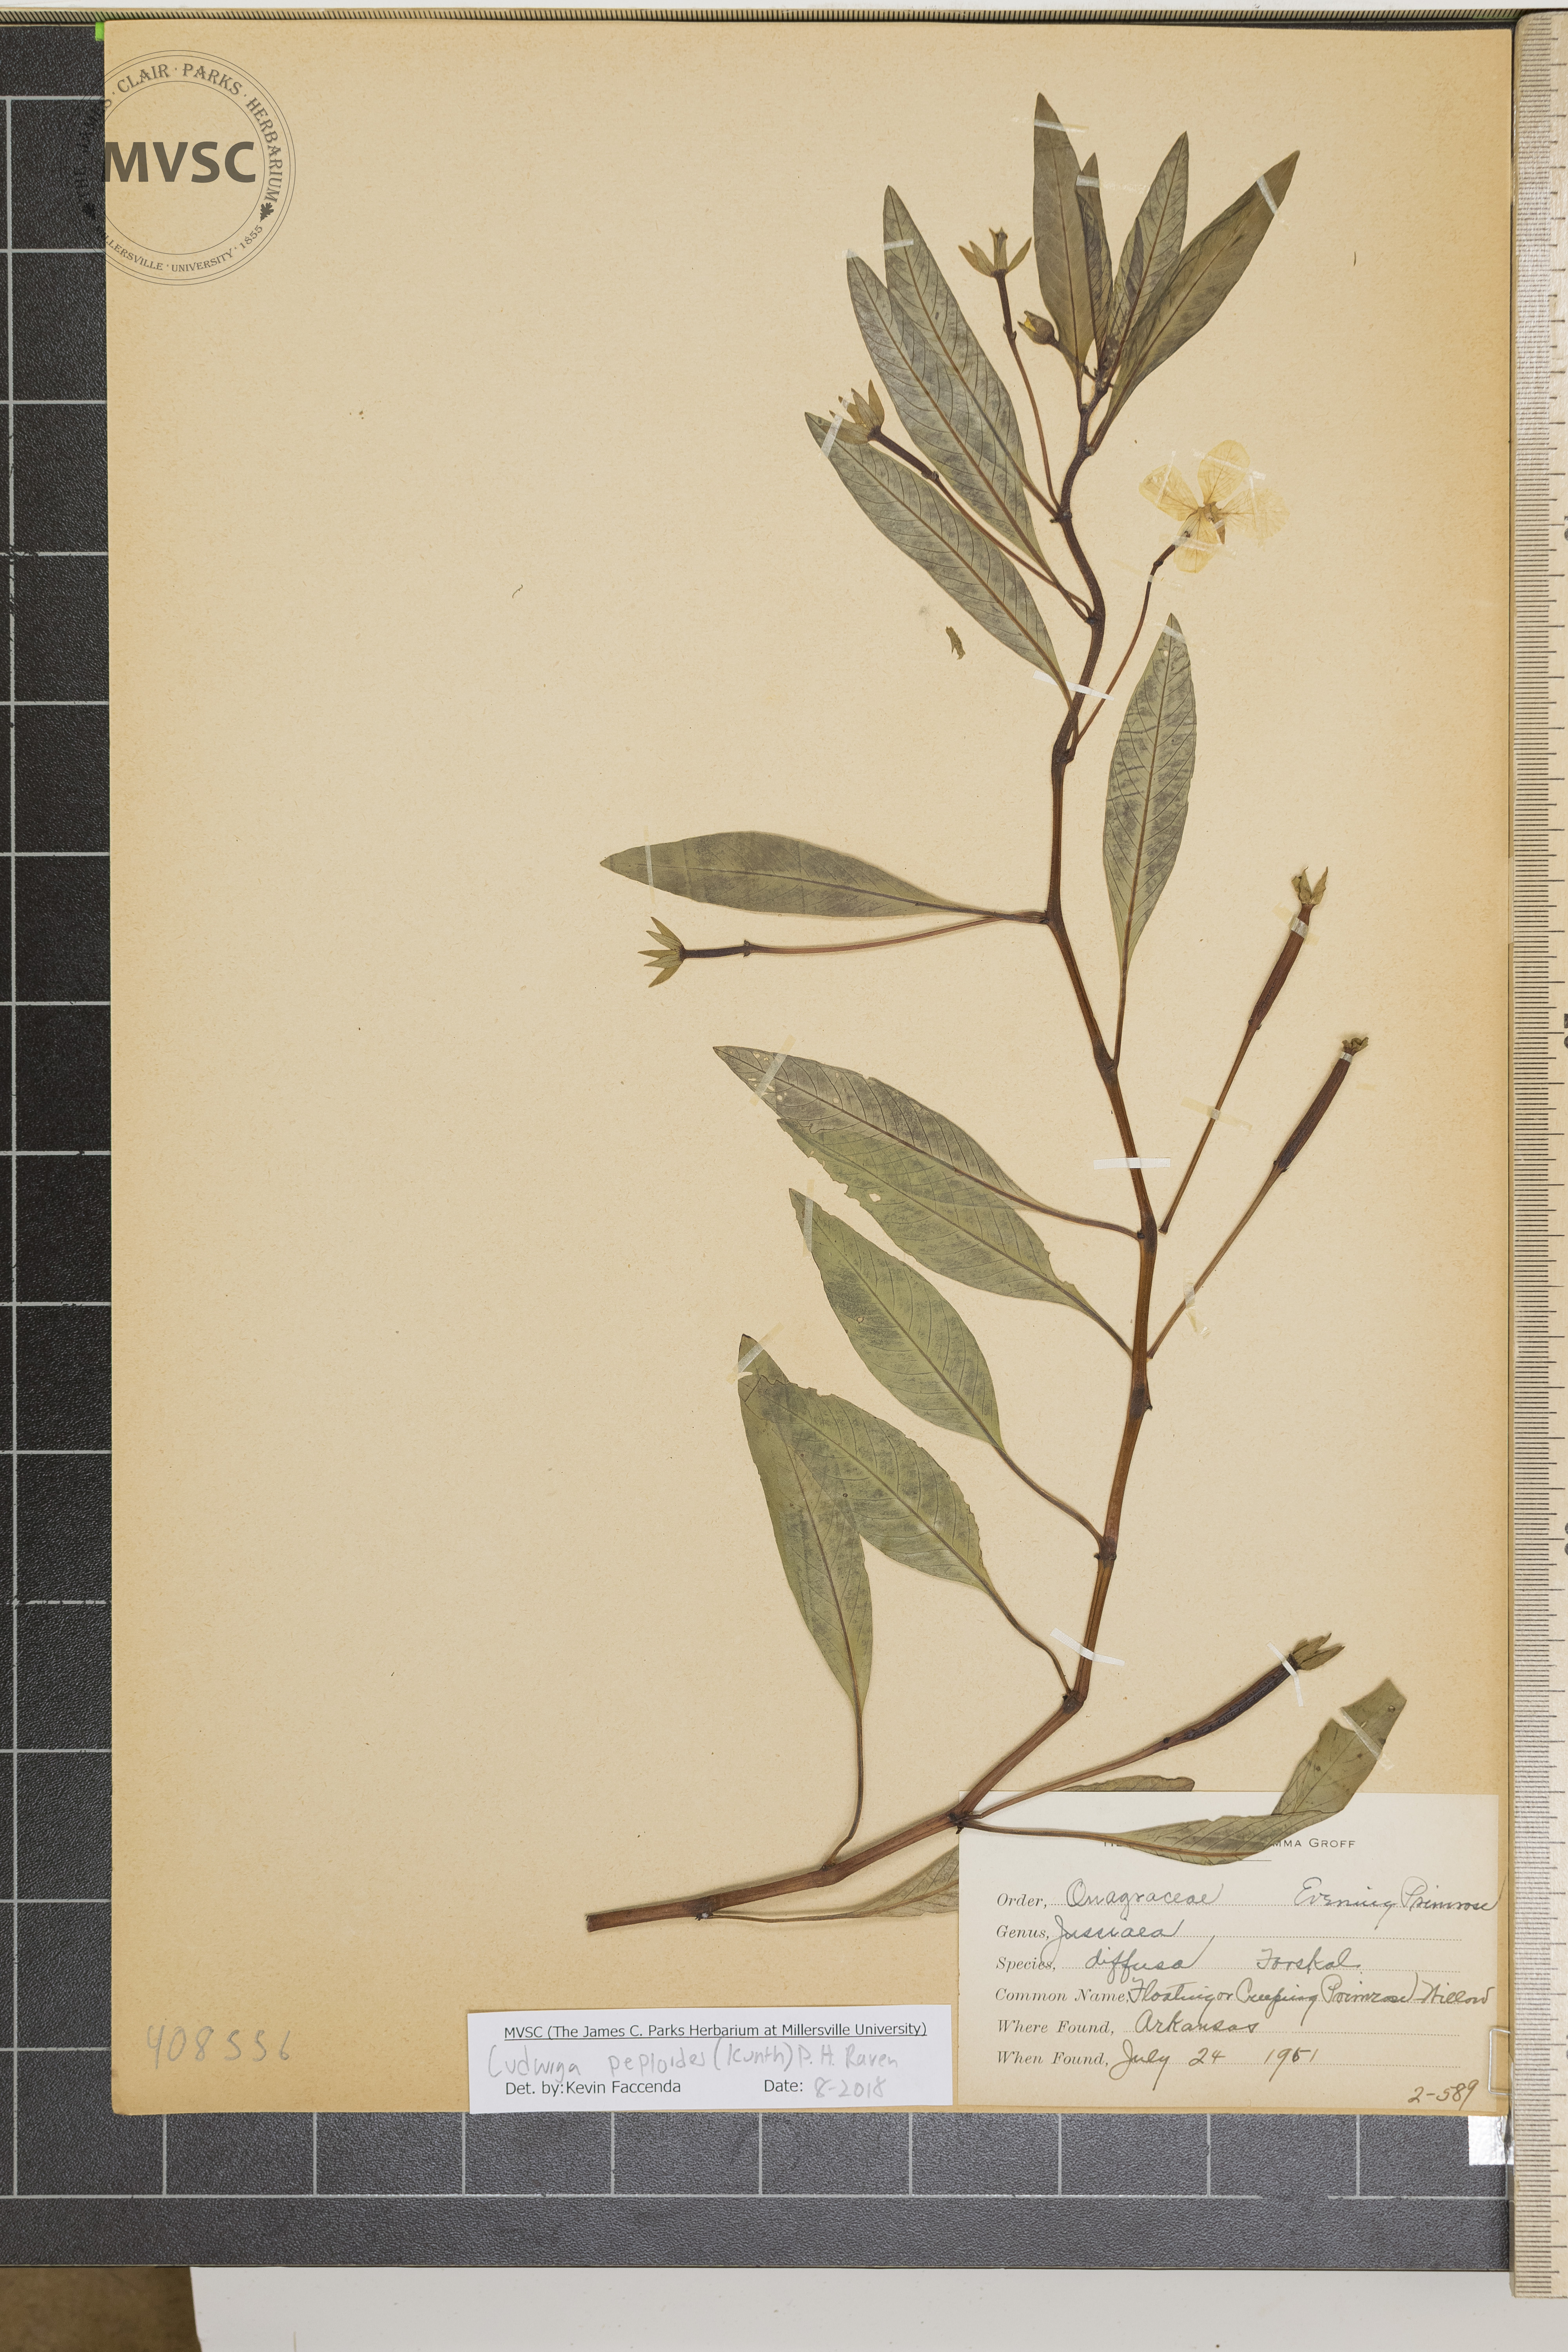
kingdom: Plantae
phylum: Tracheophyta
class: Magnoliopsida
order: Myrtales
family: Onagraceae
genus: Ludwigia
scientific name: Ludwigia peploides
